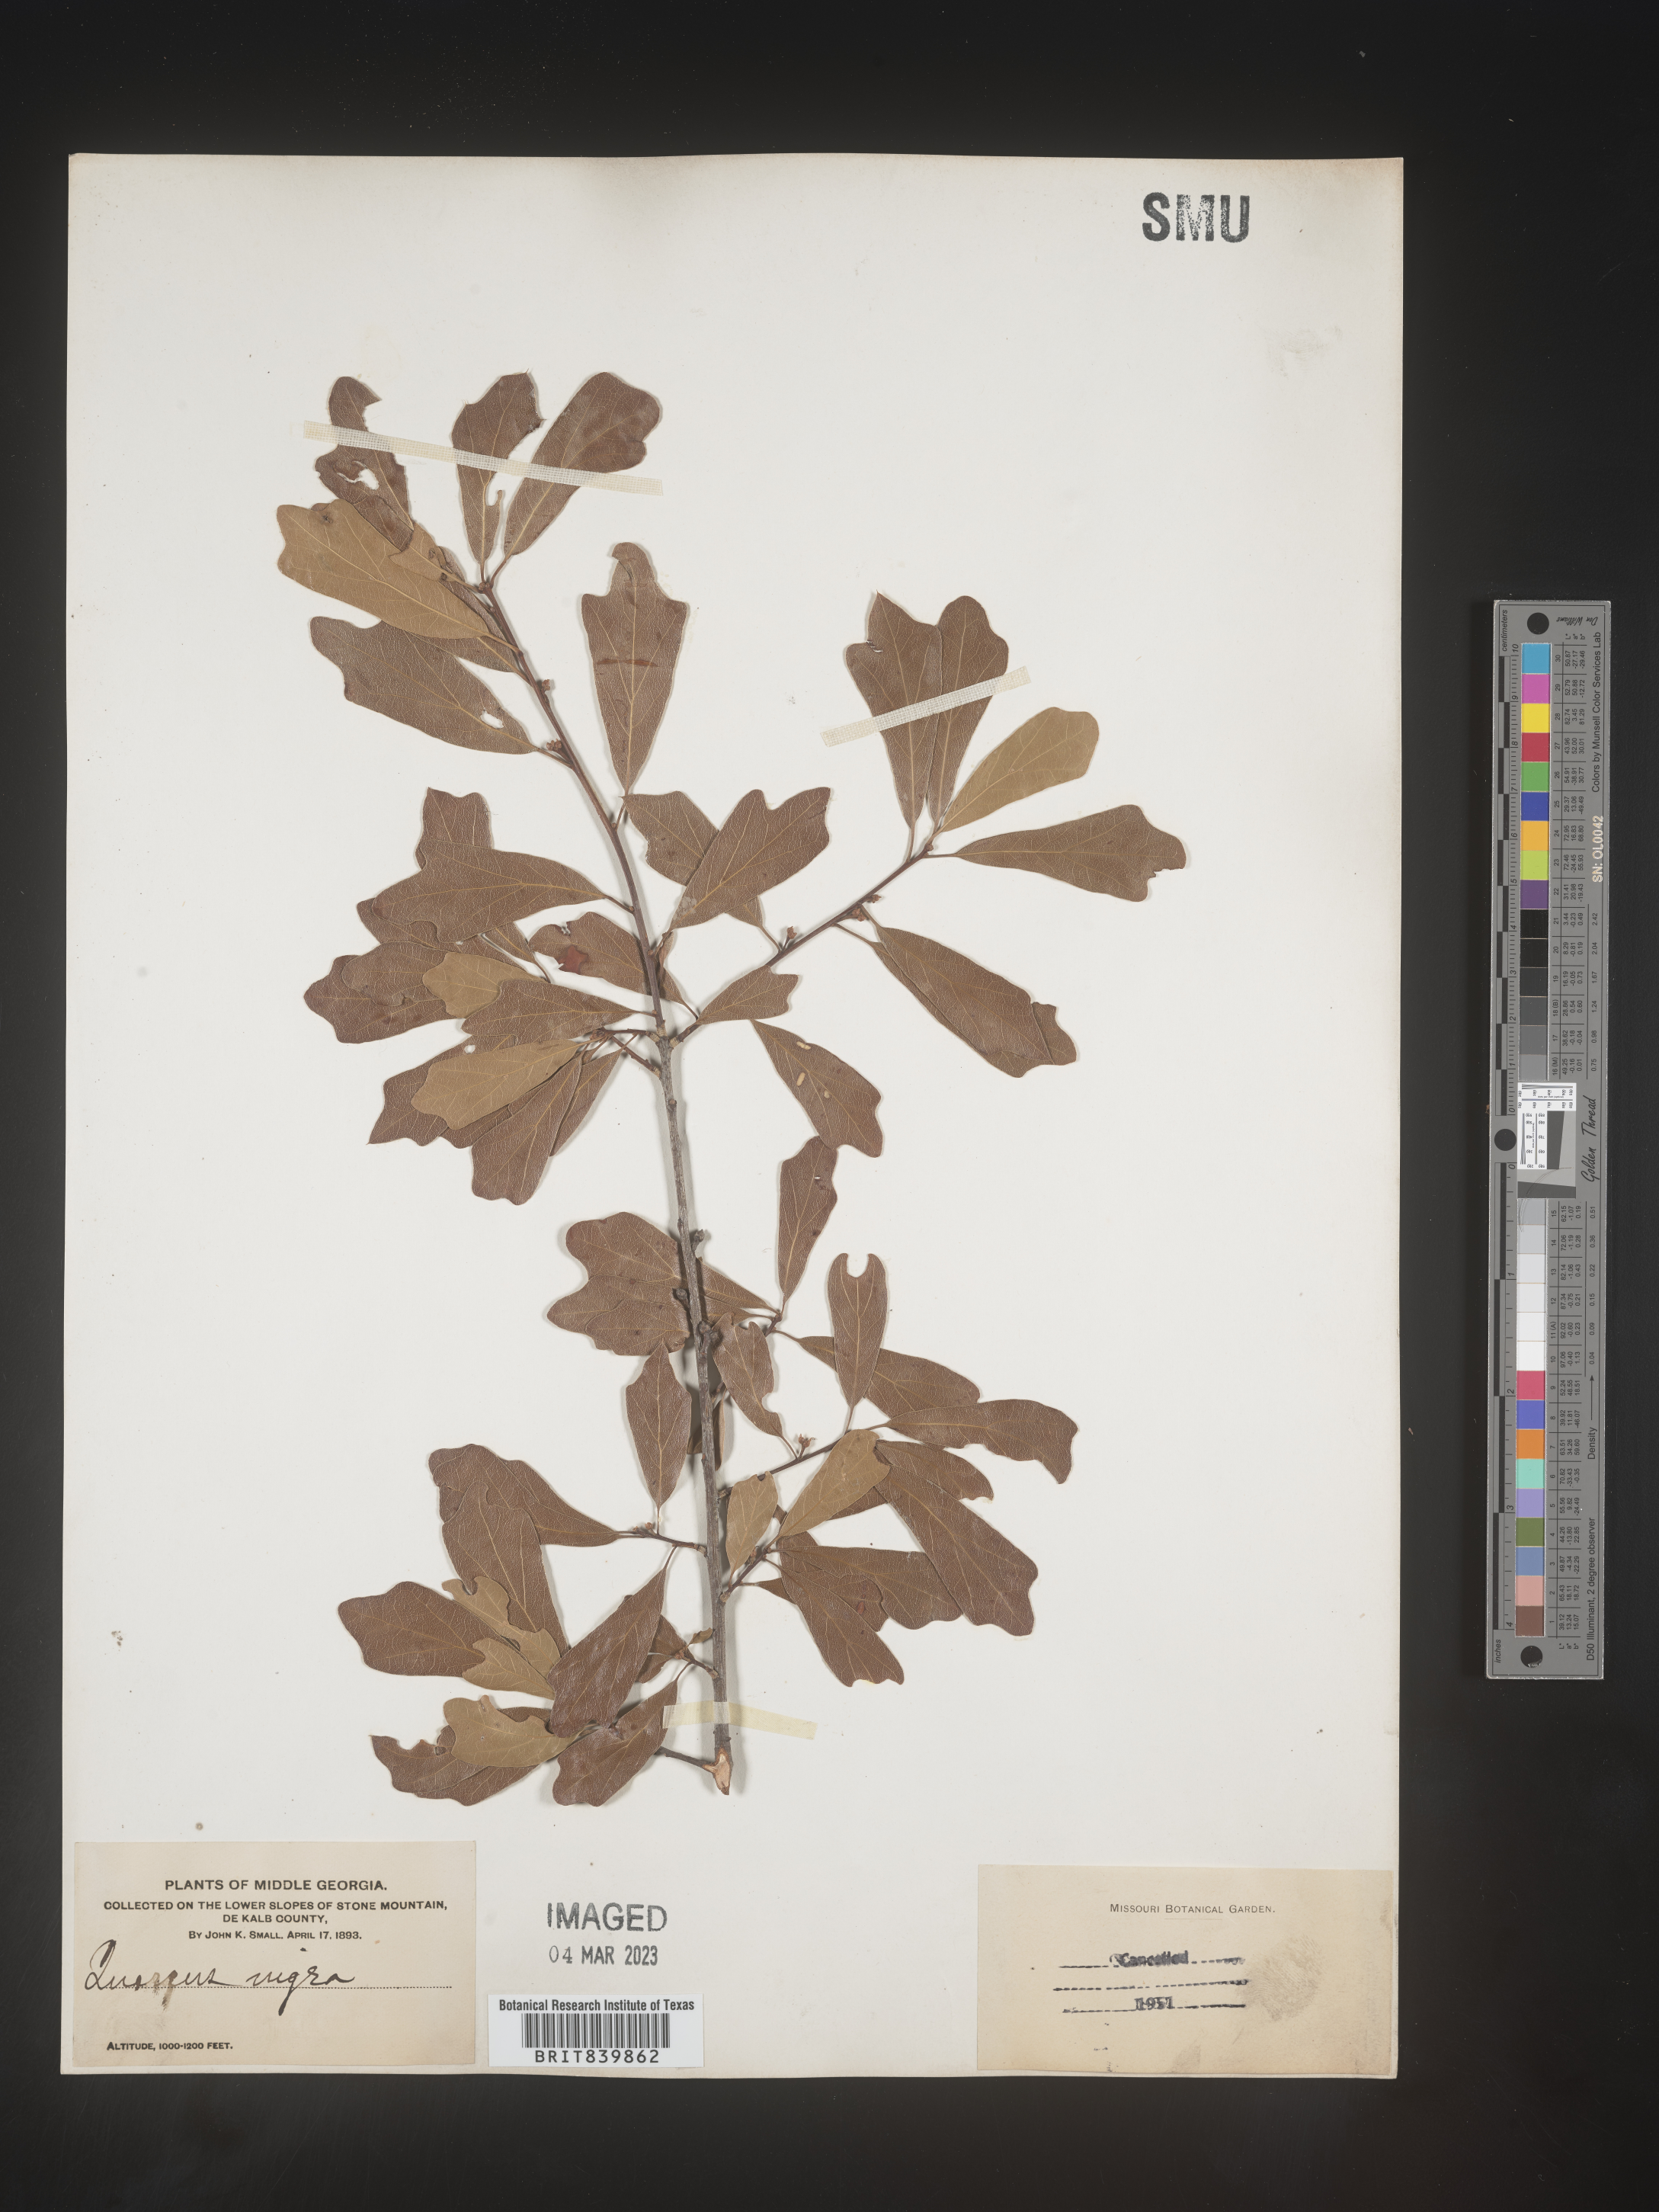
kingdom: Plantae
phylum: Tracheophyta
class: Magnoliopsida
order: Fagales
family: Fagaceae
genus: Quercus
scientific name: Quercus nigra
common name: Water oak
